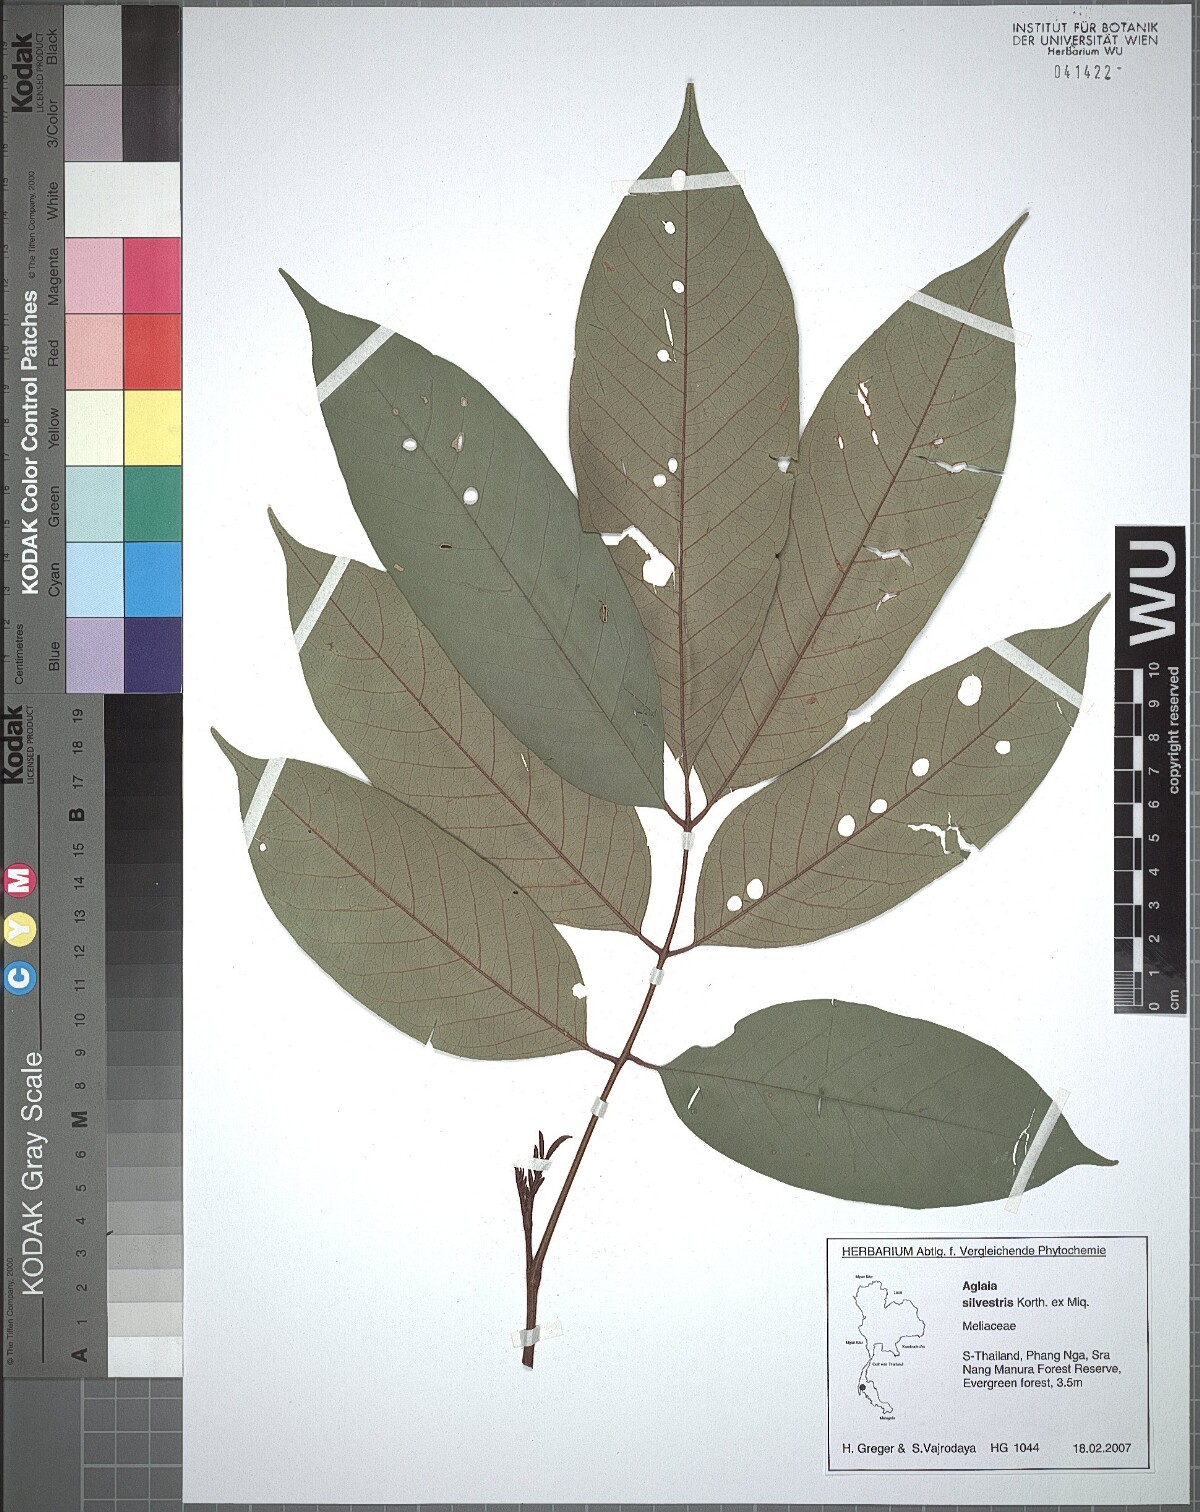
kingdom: Plantae
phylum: Tracheophyta
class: Magnoliopsida
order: Sapindales
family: Meliaceae
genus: Aglaia
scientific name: Aglaia silvestris
